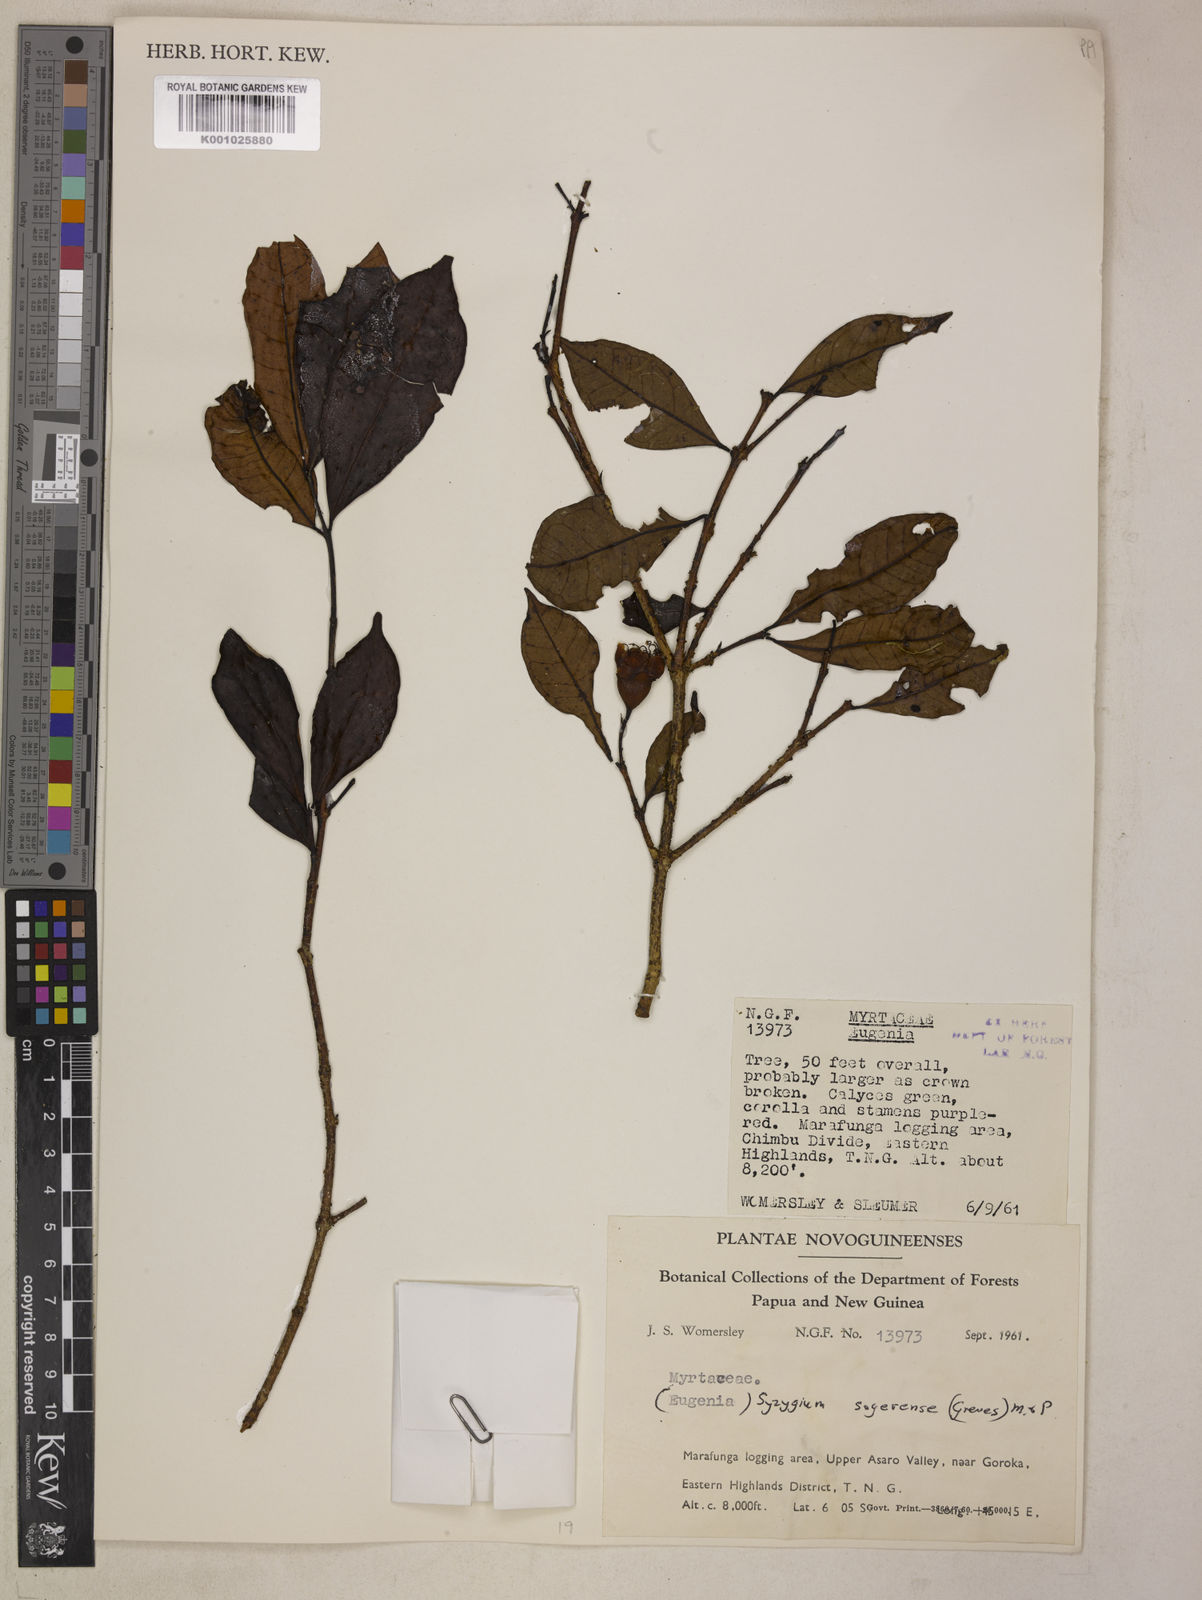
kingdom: Plantae
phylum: Tracheophyta
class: Magnoliopsida
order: Myrtales
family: Myrtaceae
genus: Syzygium
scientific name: Syzygium sogerense
